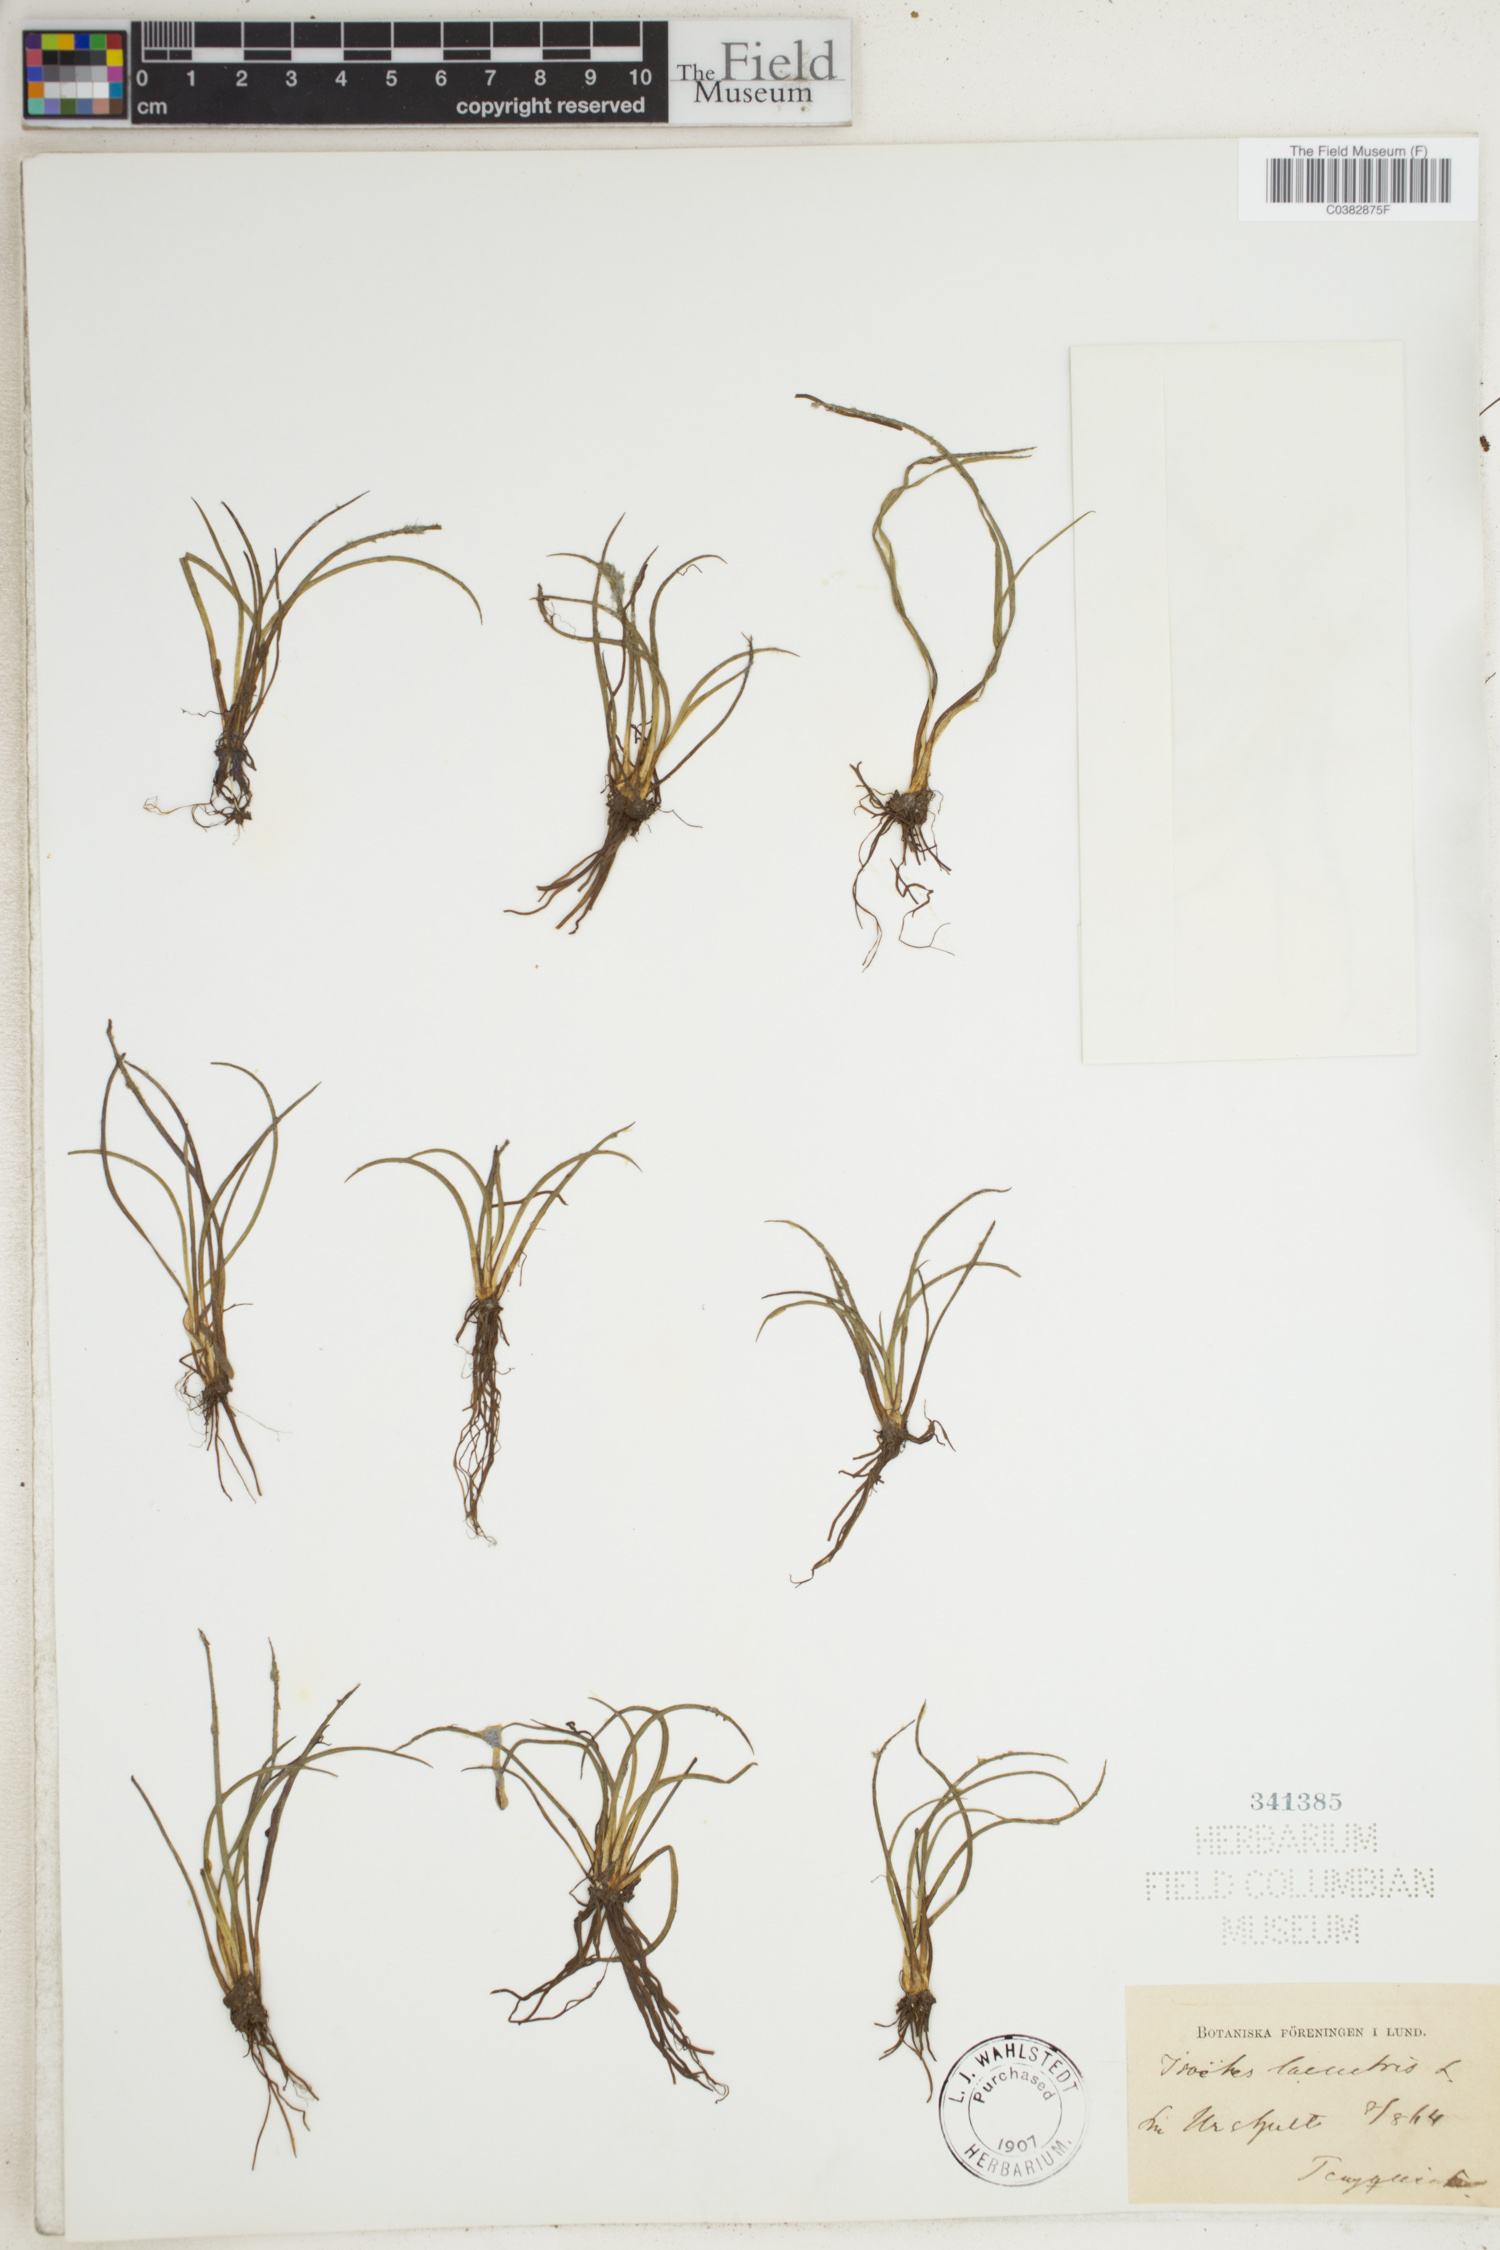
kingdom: Plantae
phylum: Tracheophyta
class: Lycopodiopsida
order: Isoetales
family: Isoetaceae
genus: Isoetes
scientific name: Isoetes lacustris
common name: Common quillwort
